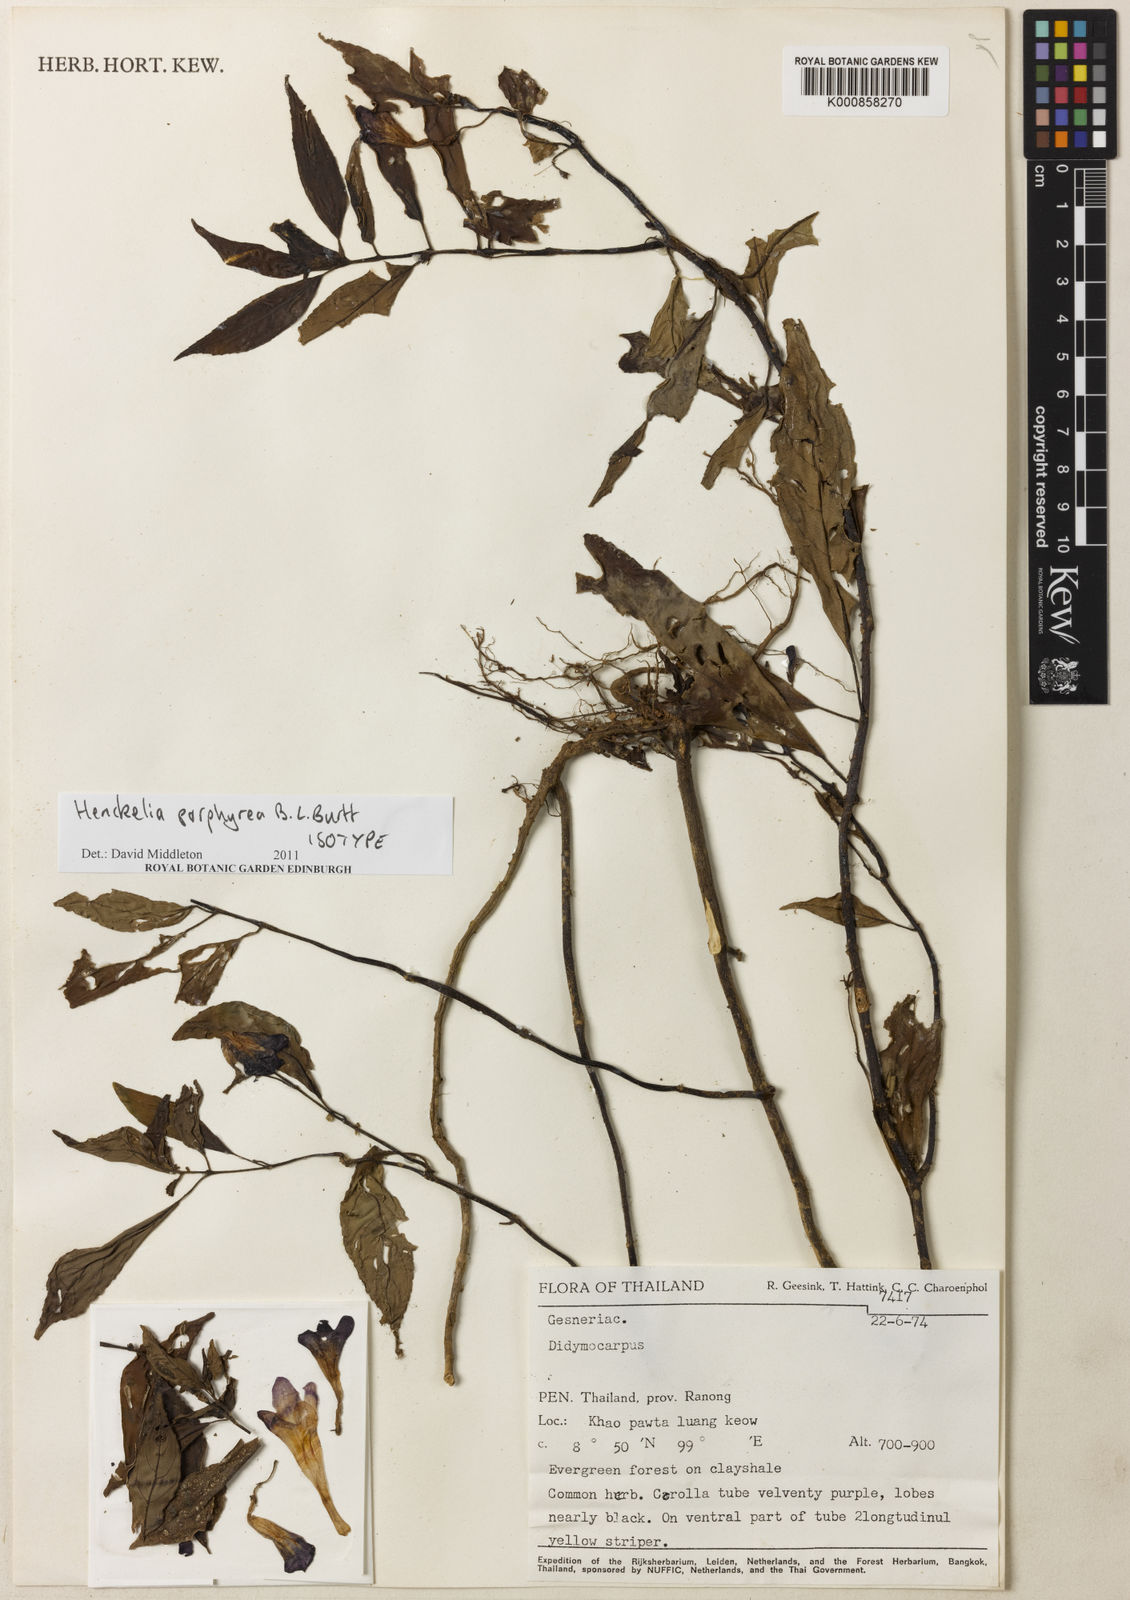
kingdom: Plantae
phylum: Tracheophyta
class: Magnoliopsida
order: Lamiales
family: Gesneriaceae
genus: Codonoboea
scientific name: Codonoboea porphyrea
